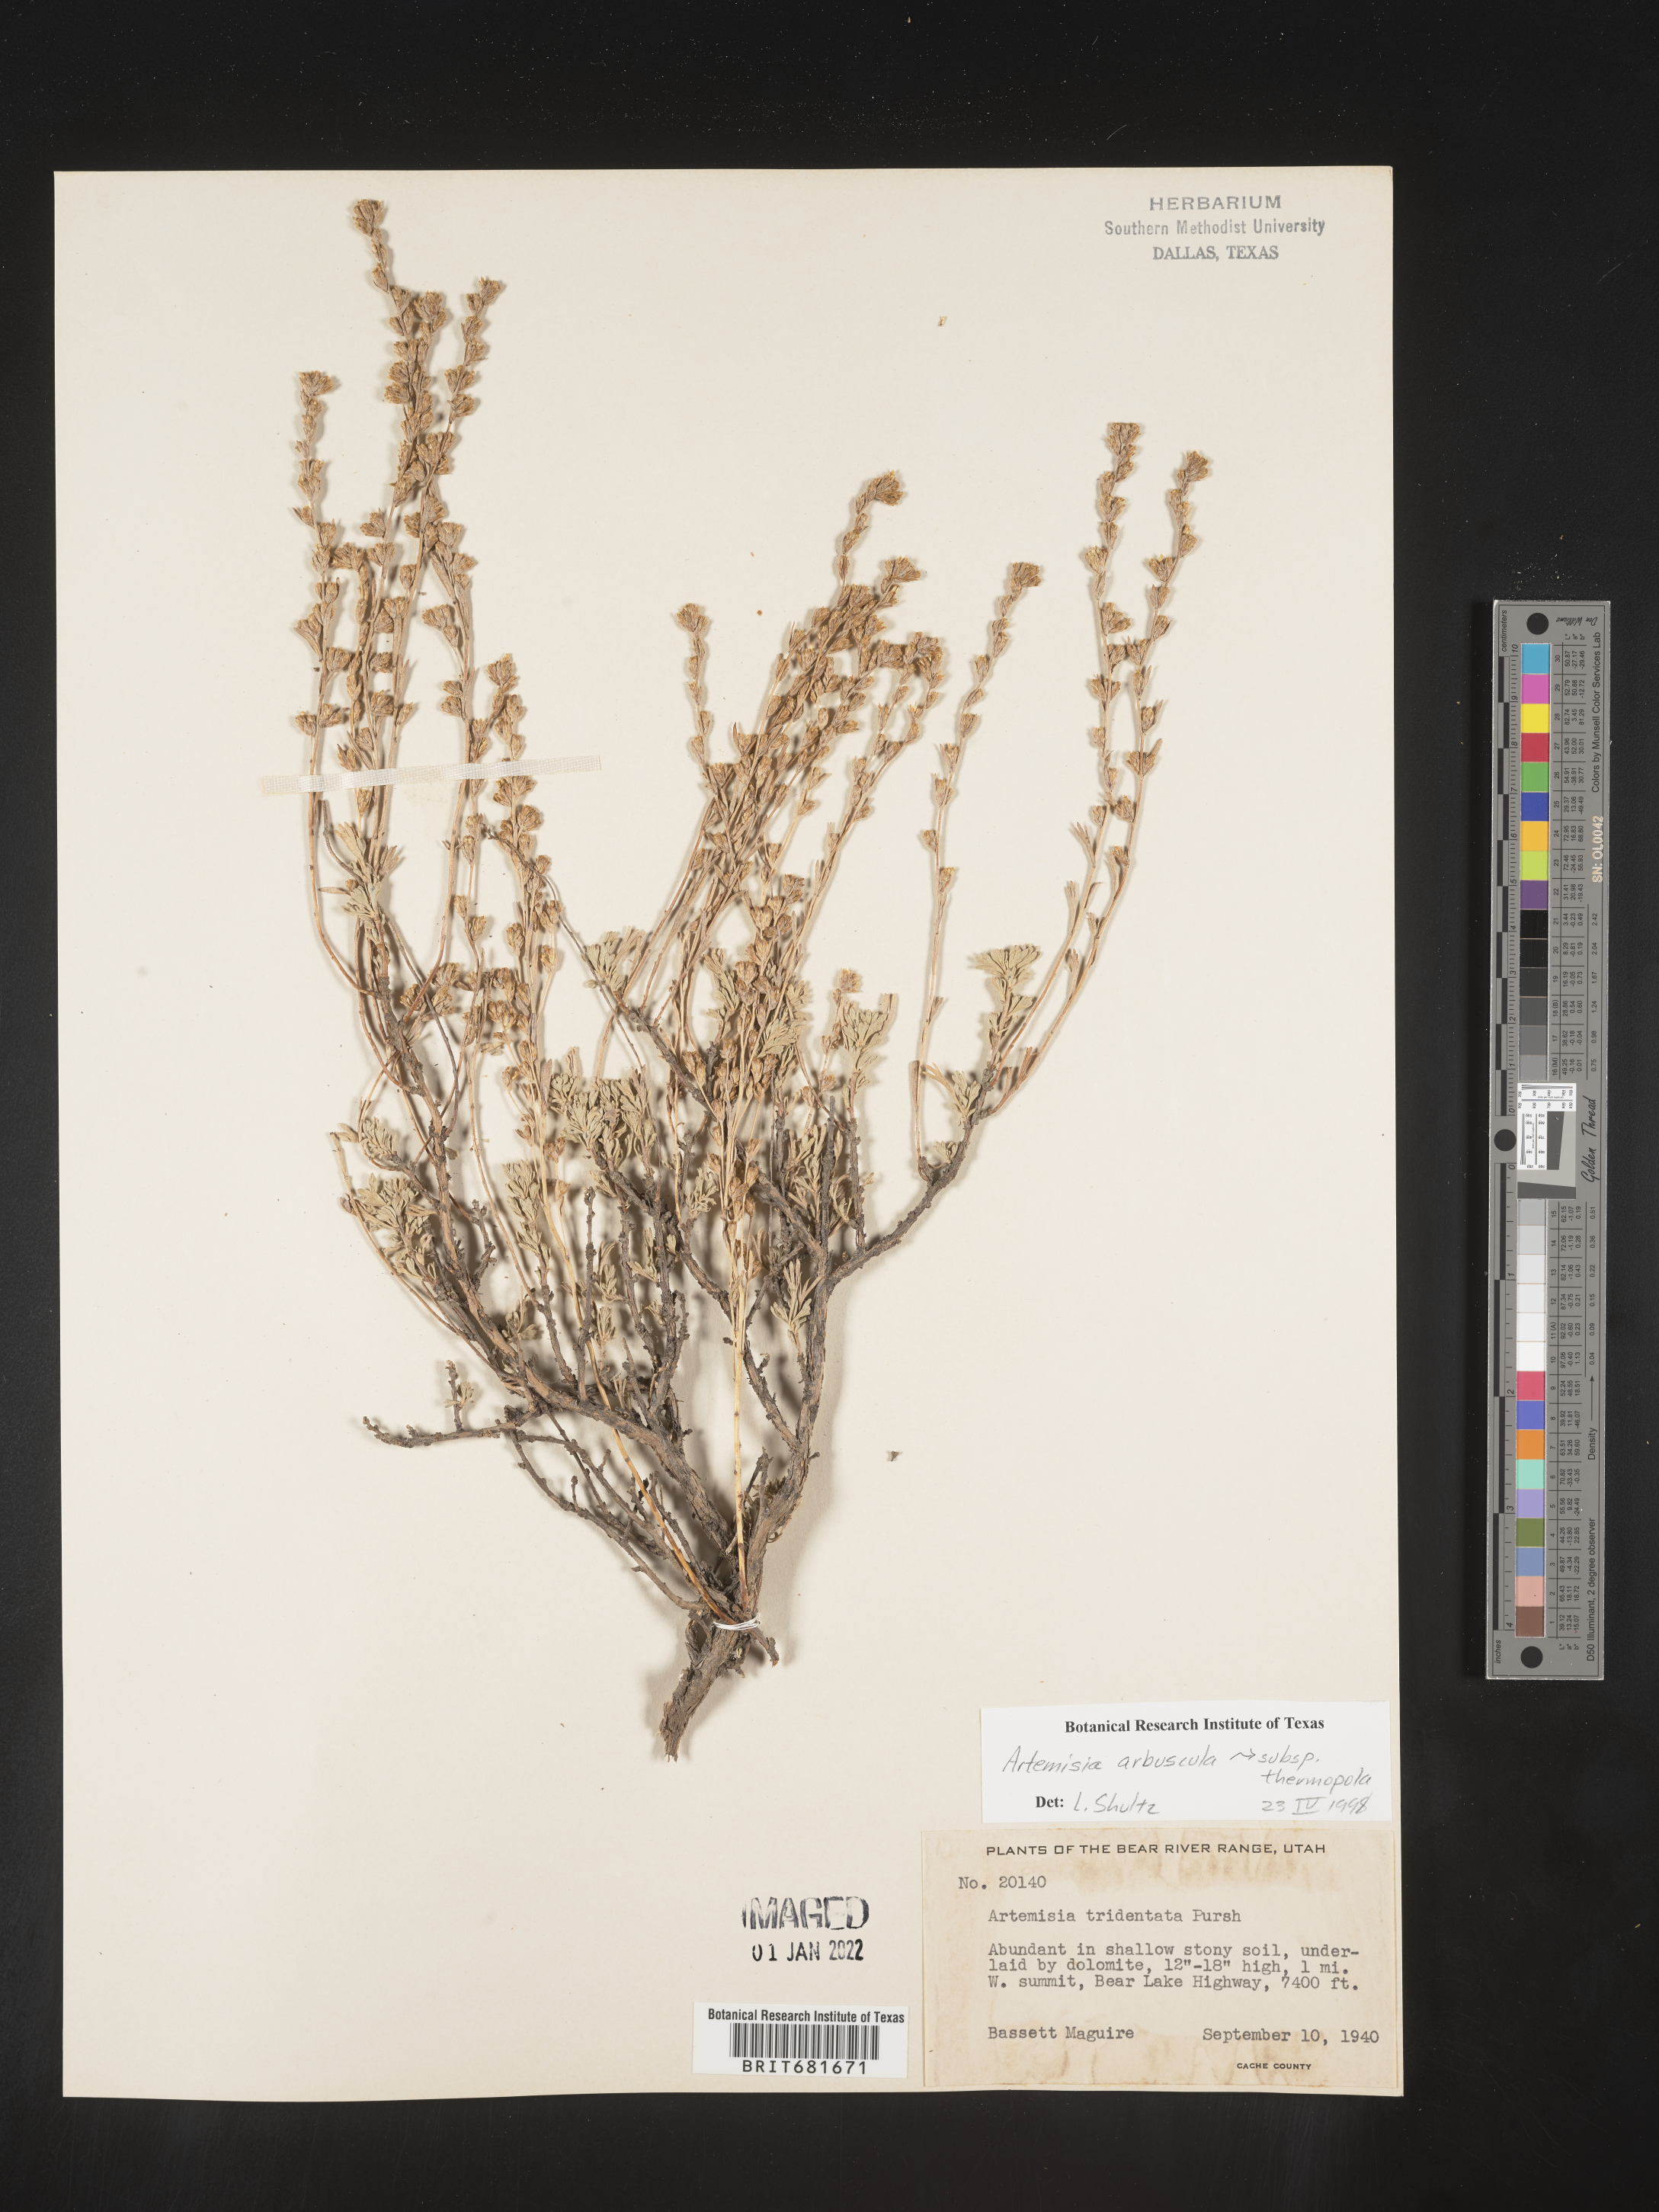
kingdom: Plantae
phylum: Tracheophyta
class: Magnoliopsida
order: Asterales
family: Asteraceae
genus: Artemisia
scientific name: Artemisia arbuscula
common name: Sagebrush
